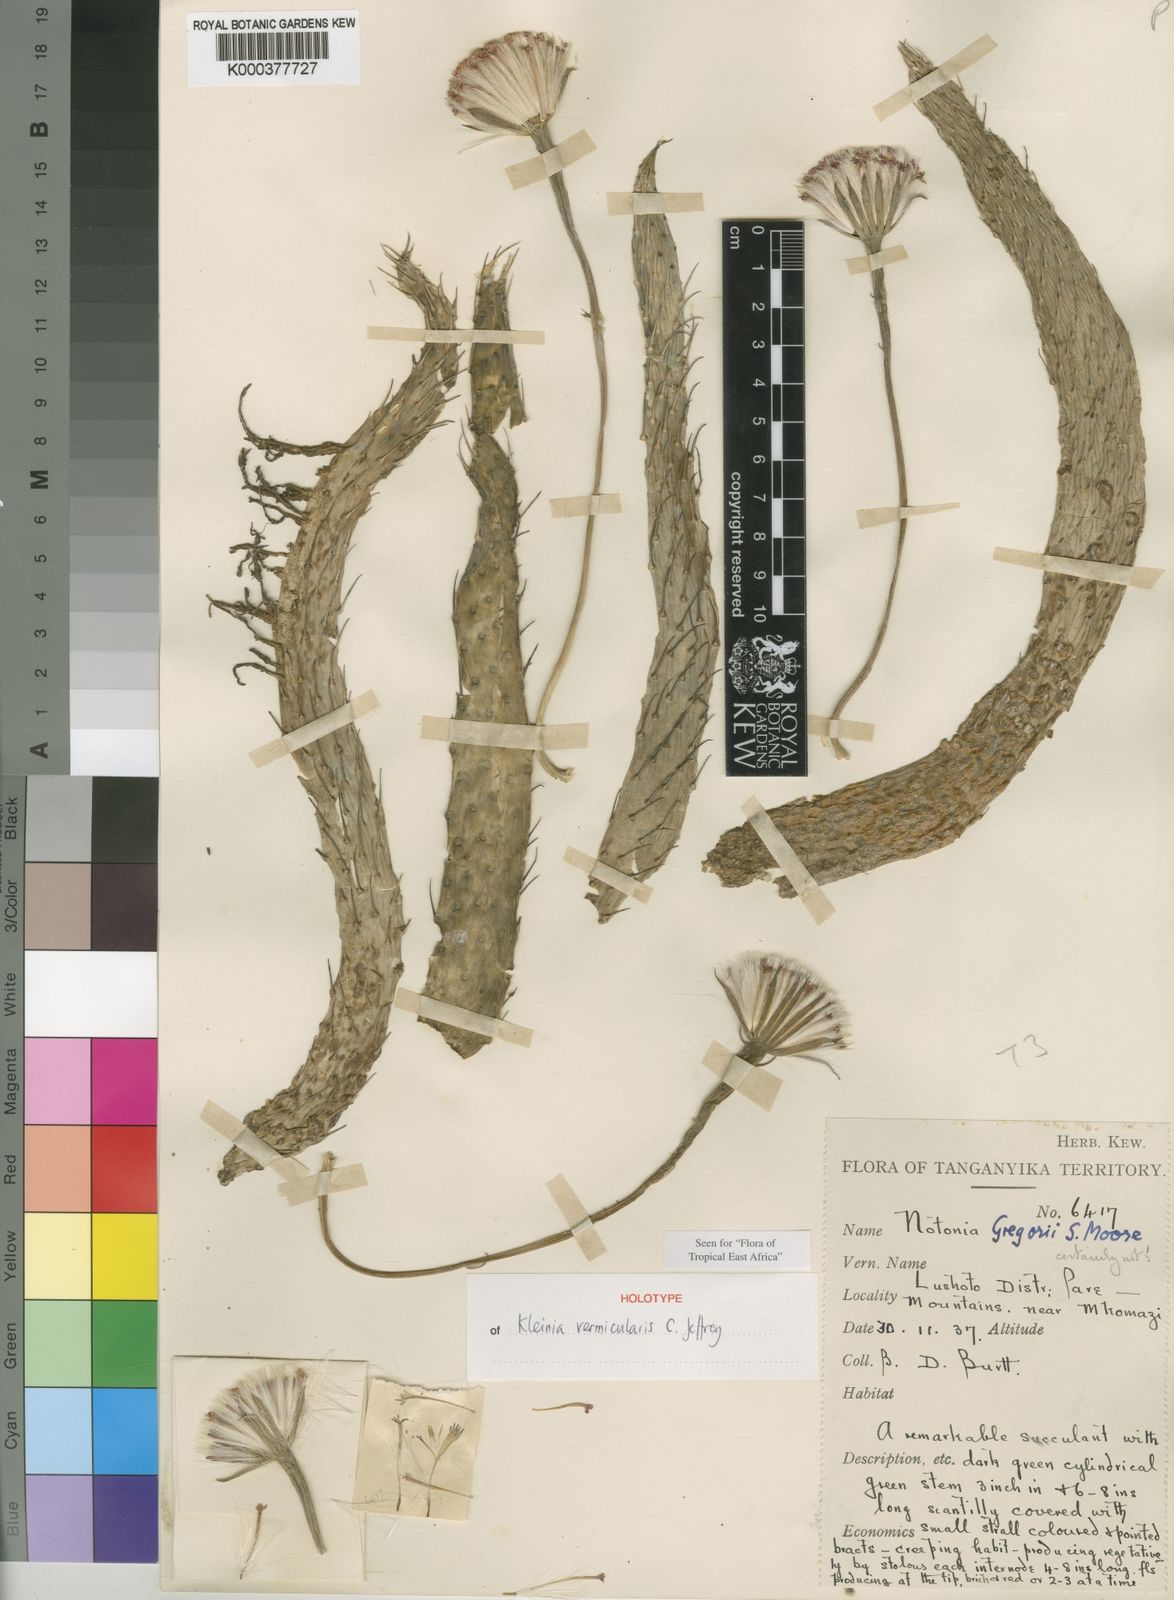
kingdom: Plantae
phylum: Tracheophyta
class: Magnoliopsida
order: Asterales
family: Asteraceae
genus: Kleinia
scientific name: Kleinia vermicularis
